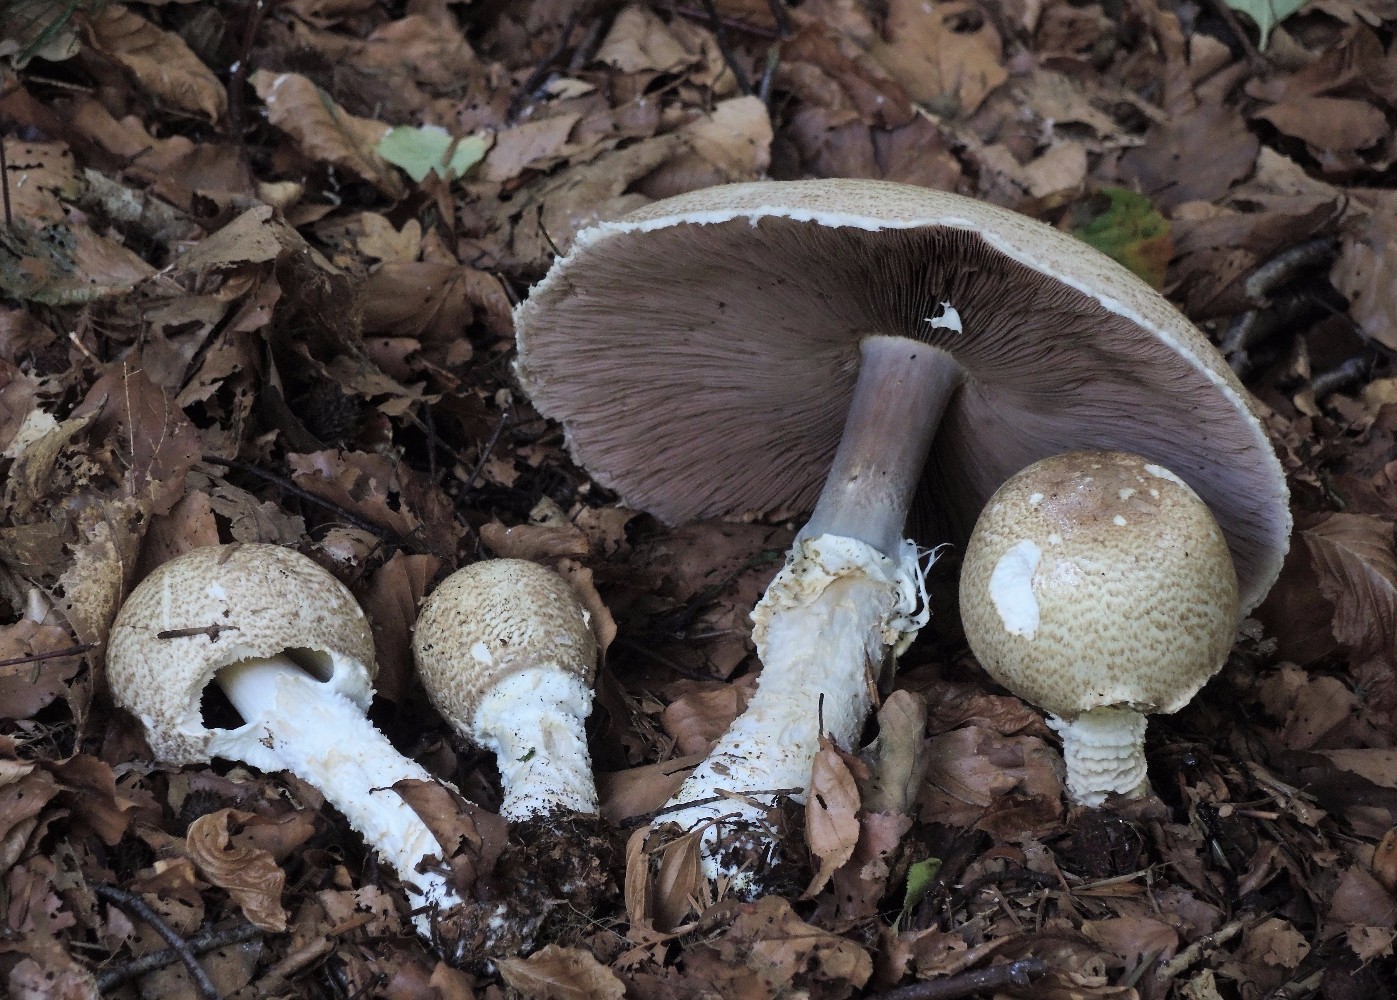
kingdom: Fungi
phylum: Basidiomycota
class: Agaricomycetes
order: Agaricales
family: Agaricaceae
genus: Agaricus
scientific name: Agaricus augustus
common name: prægtig champignon
